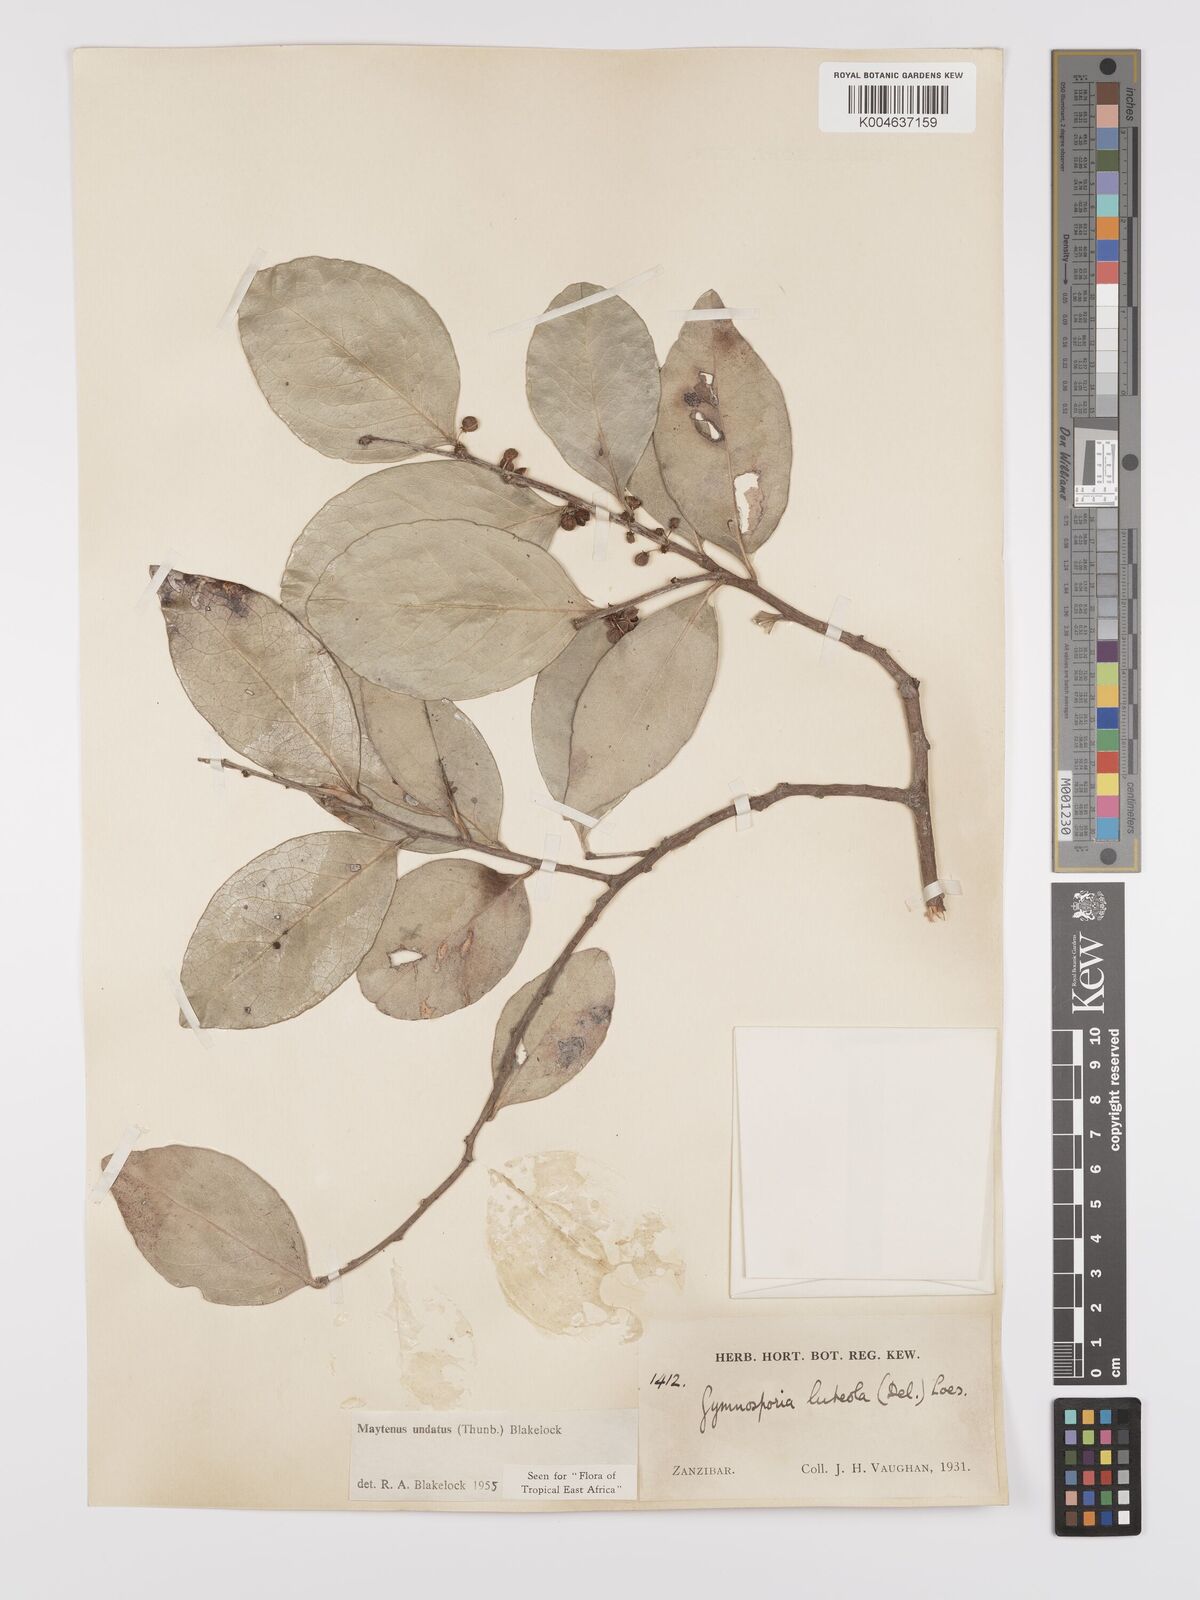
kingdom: Plantae
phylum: Tracheophyta
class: Magnoliopsida
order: Celastrales
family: Celastraceae
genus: Gymnosporia
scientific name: Gymnosporia undata
